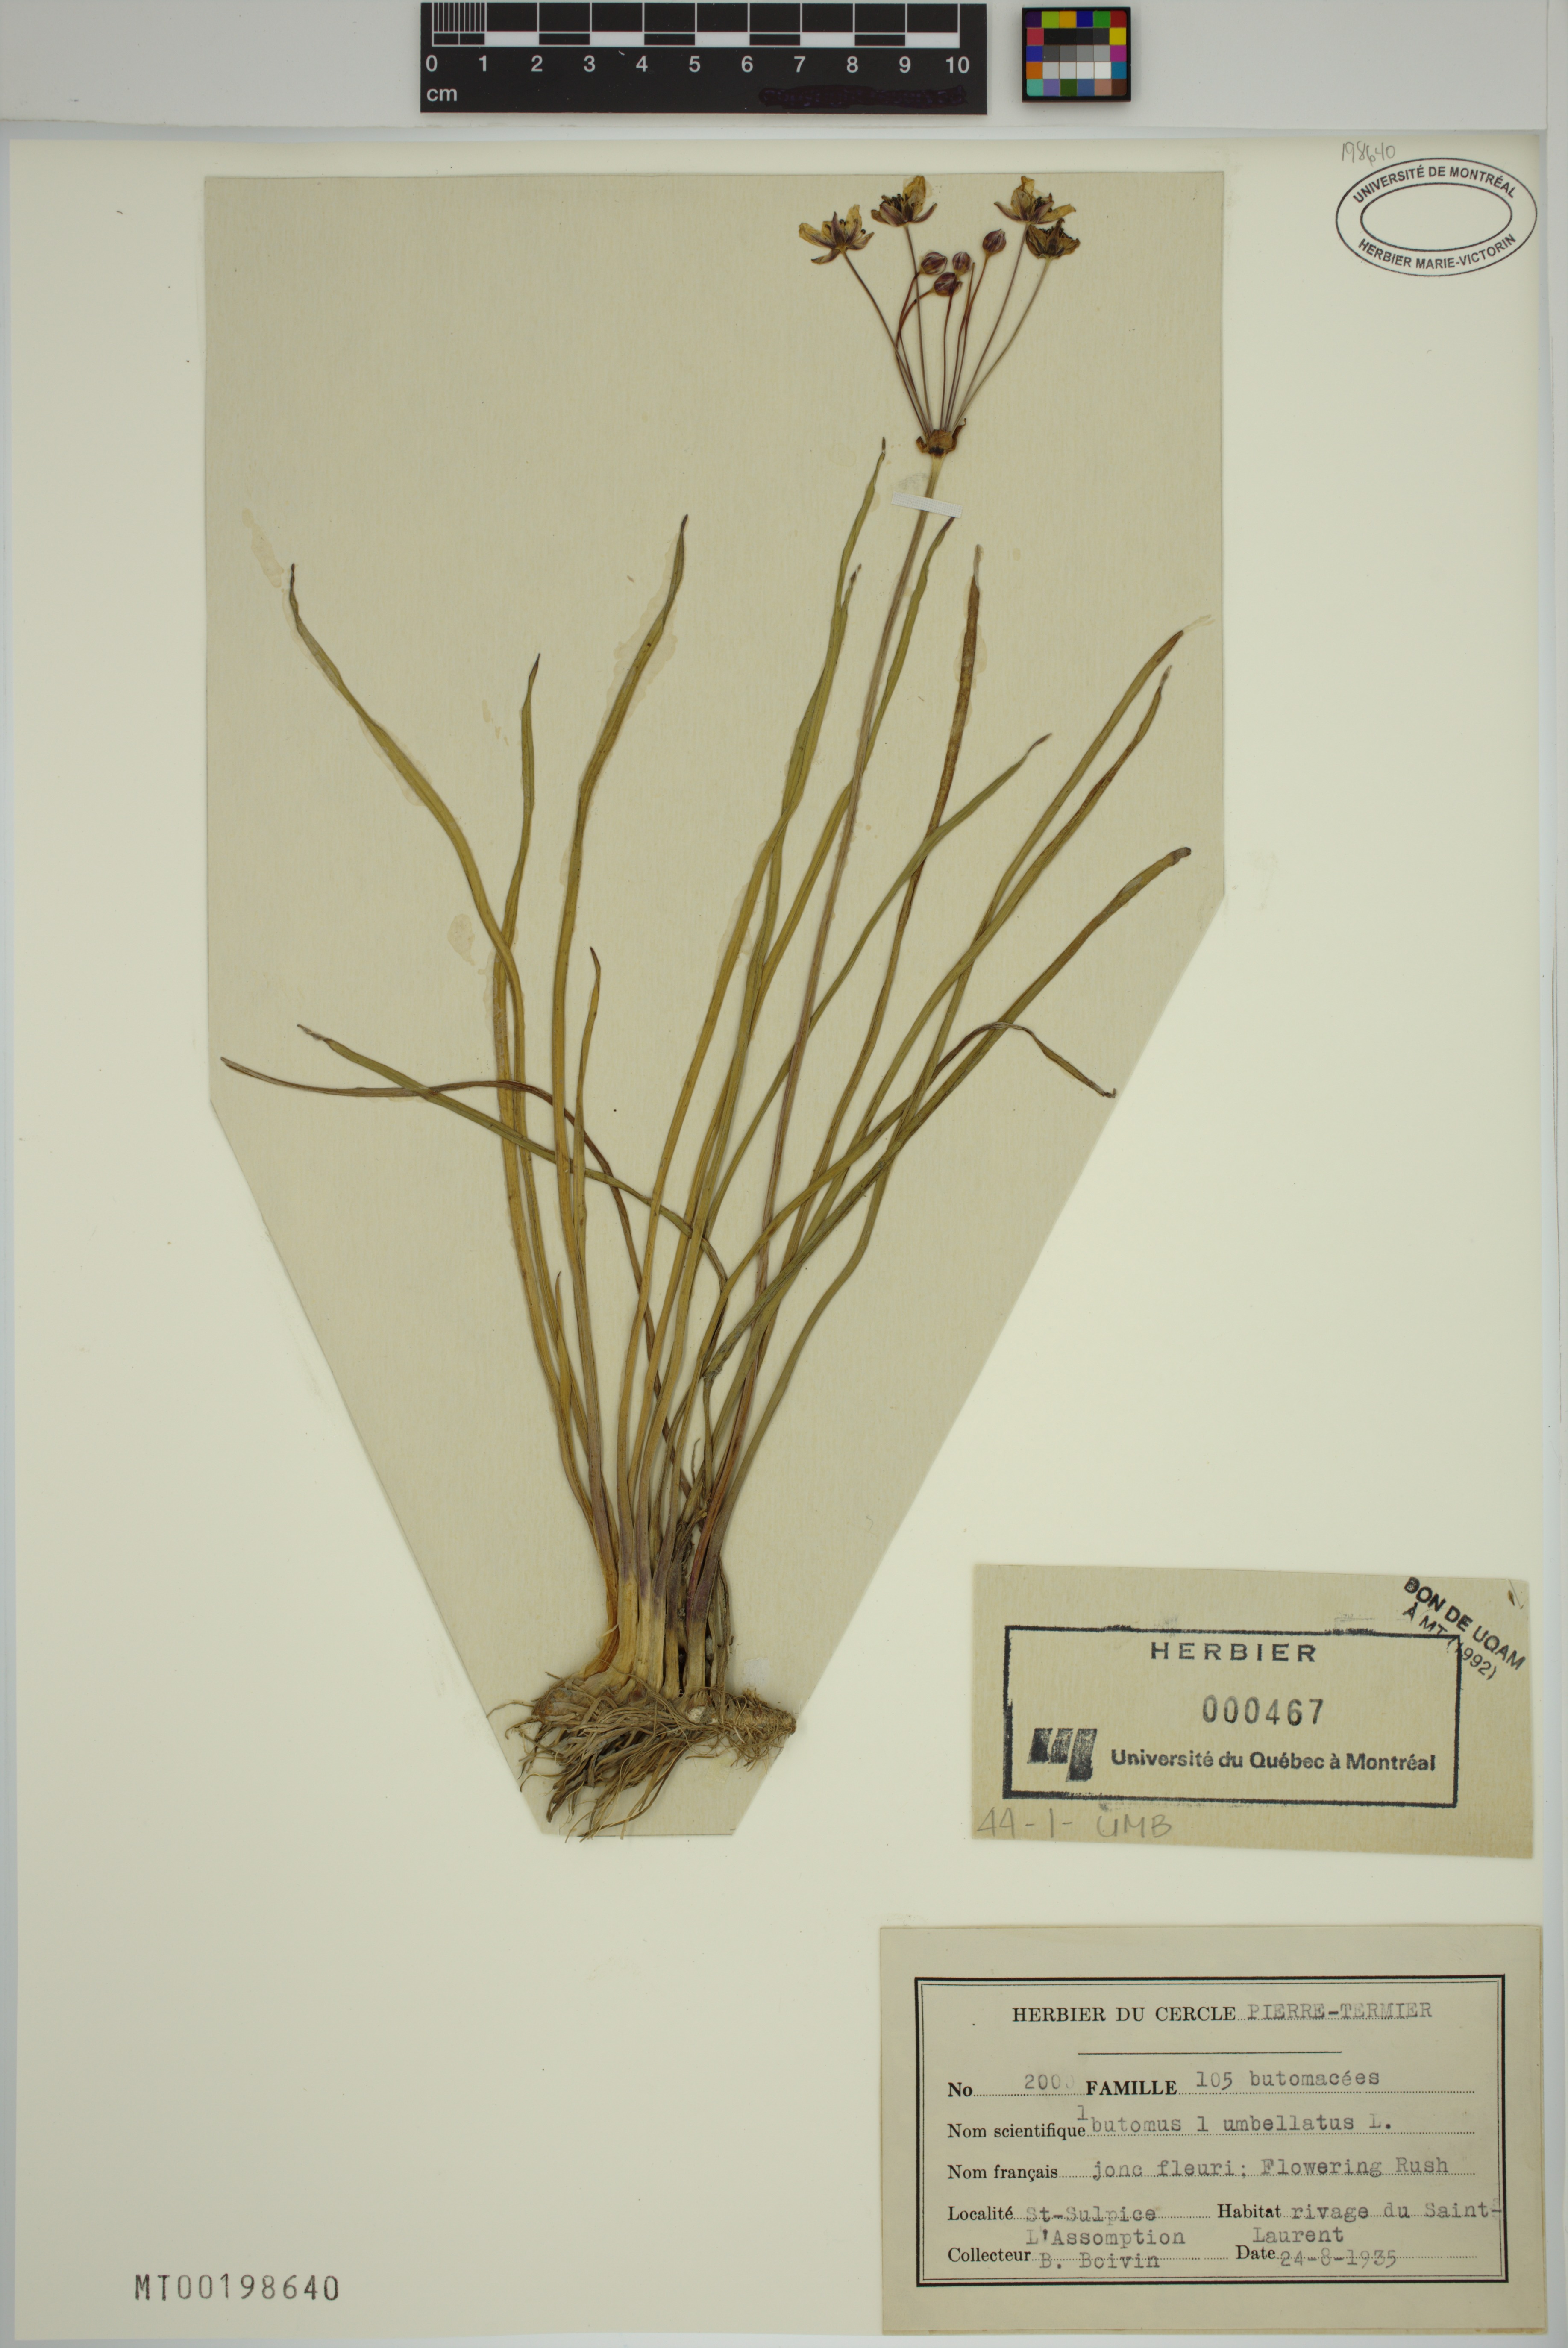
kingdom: Plantae
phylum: Tracheophyta
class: Liliopsida
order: Alismatales
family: Butomaceae
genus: Butomus
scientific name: Butomus umbellatus
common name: Flowering-rush
